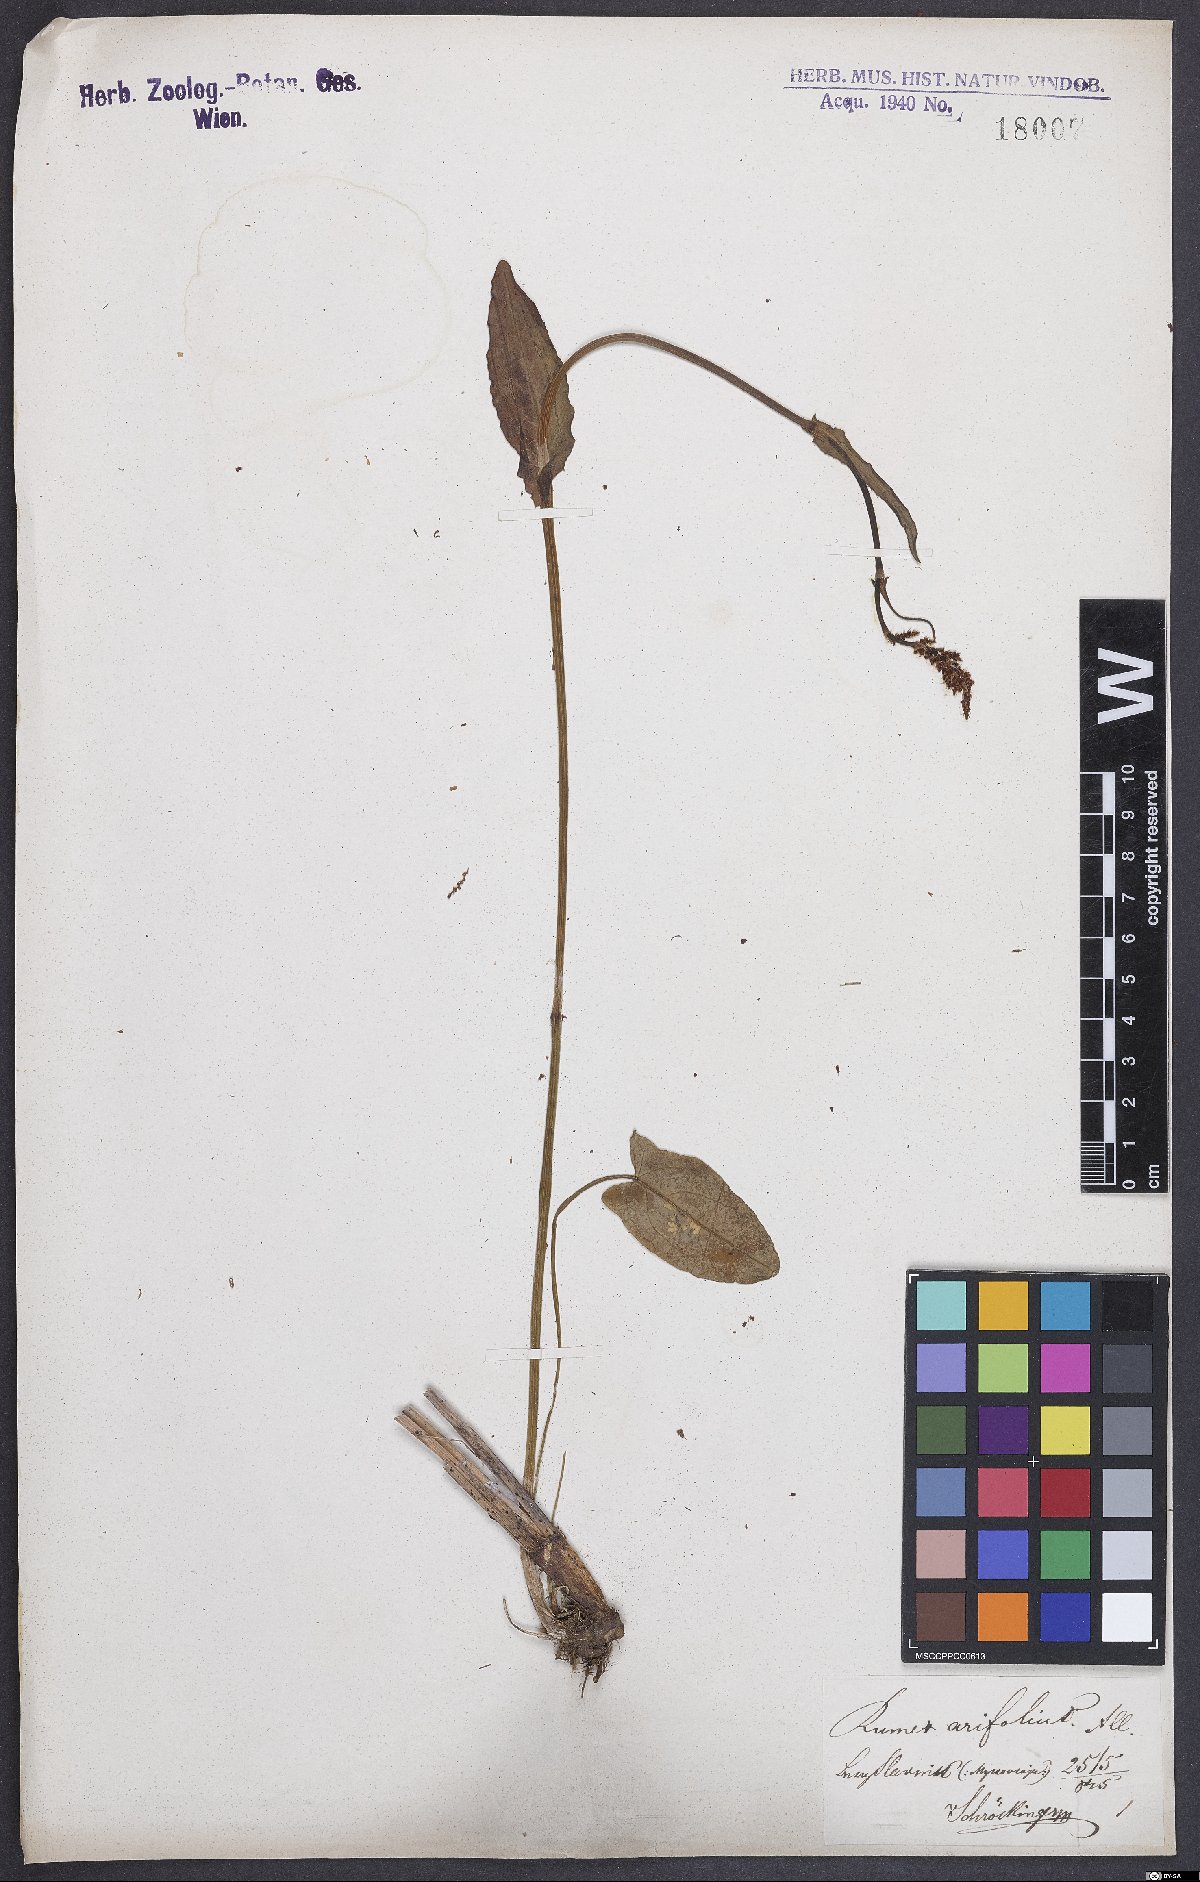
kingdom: Plantae
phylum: Tracheophyta
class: Magnoliopsida
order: Caryophyllales
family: Polygonaceae
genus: Rumex
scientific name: Rumex arifolius
